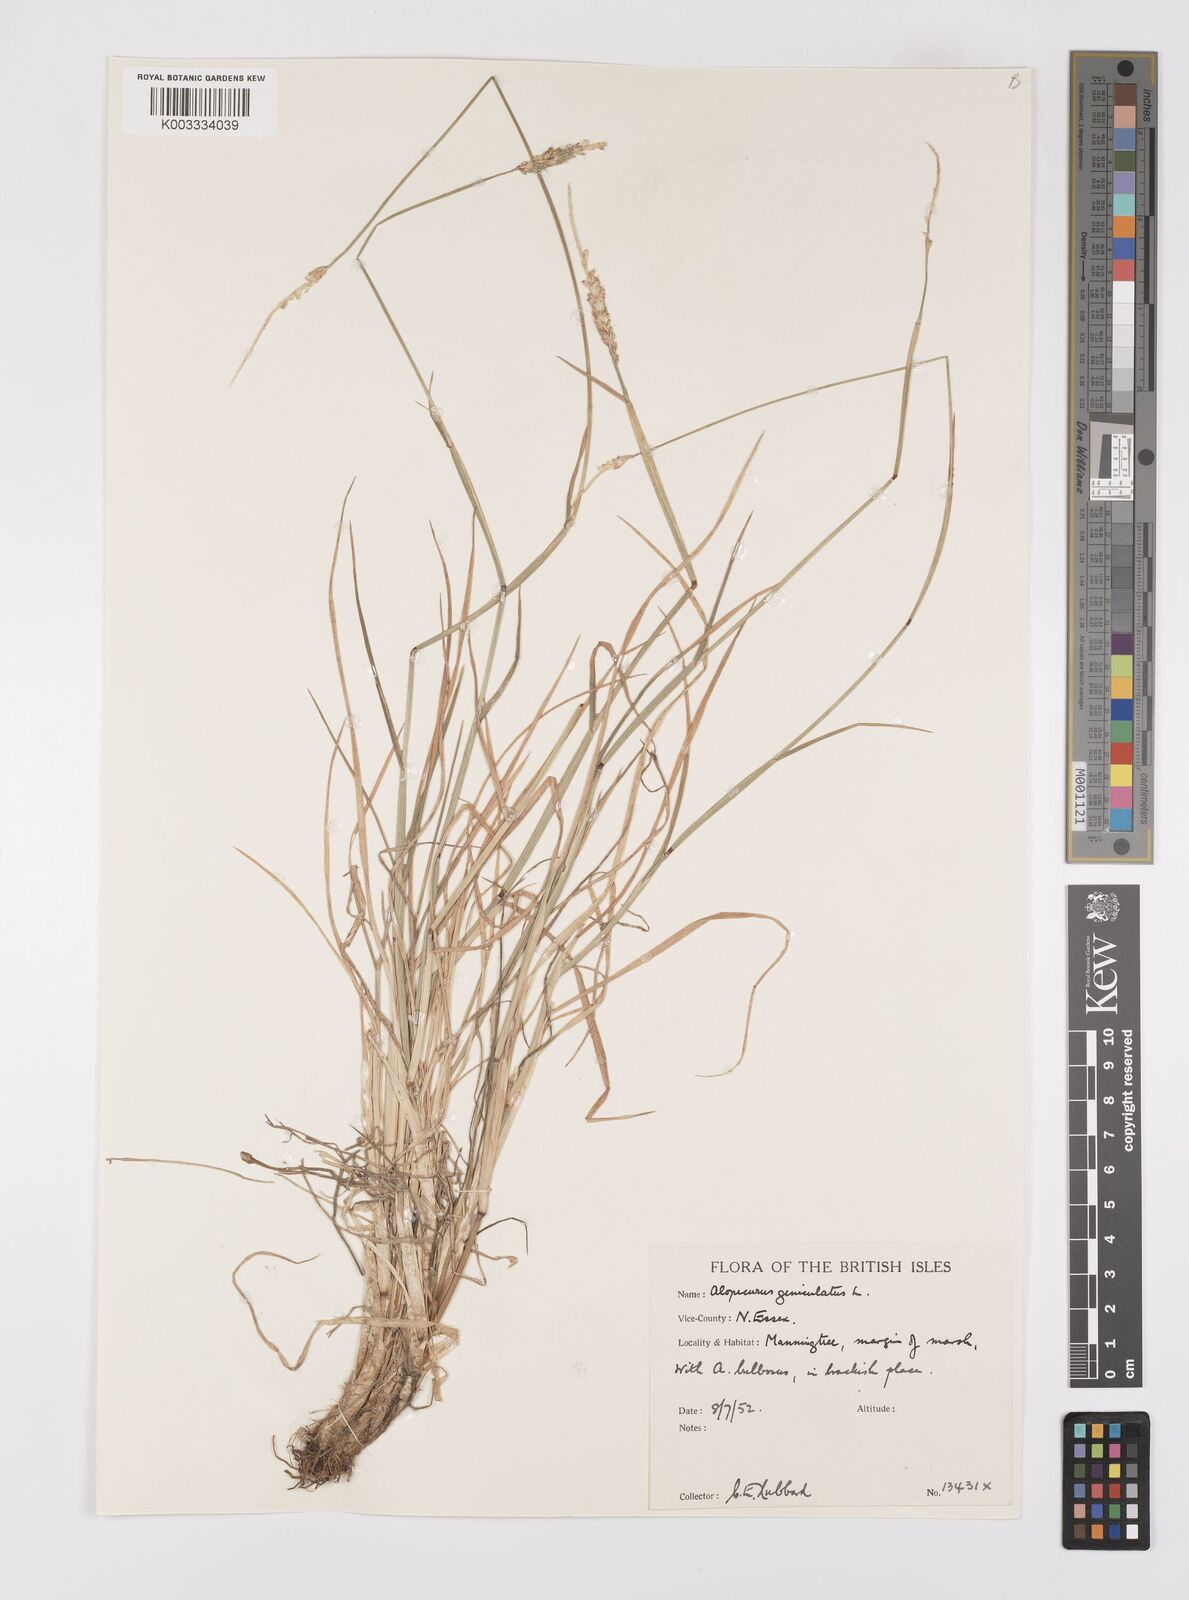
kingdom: Plantae
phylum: Tracheophyta
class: Liliopsida
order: Poales
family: Poaceae
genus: Alopecurus
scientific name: Alopecurus geniculatus
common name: Water foxtail
